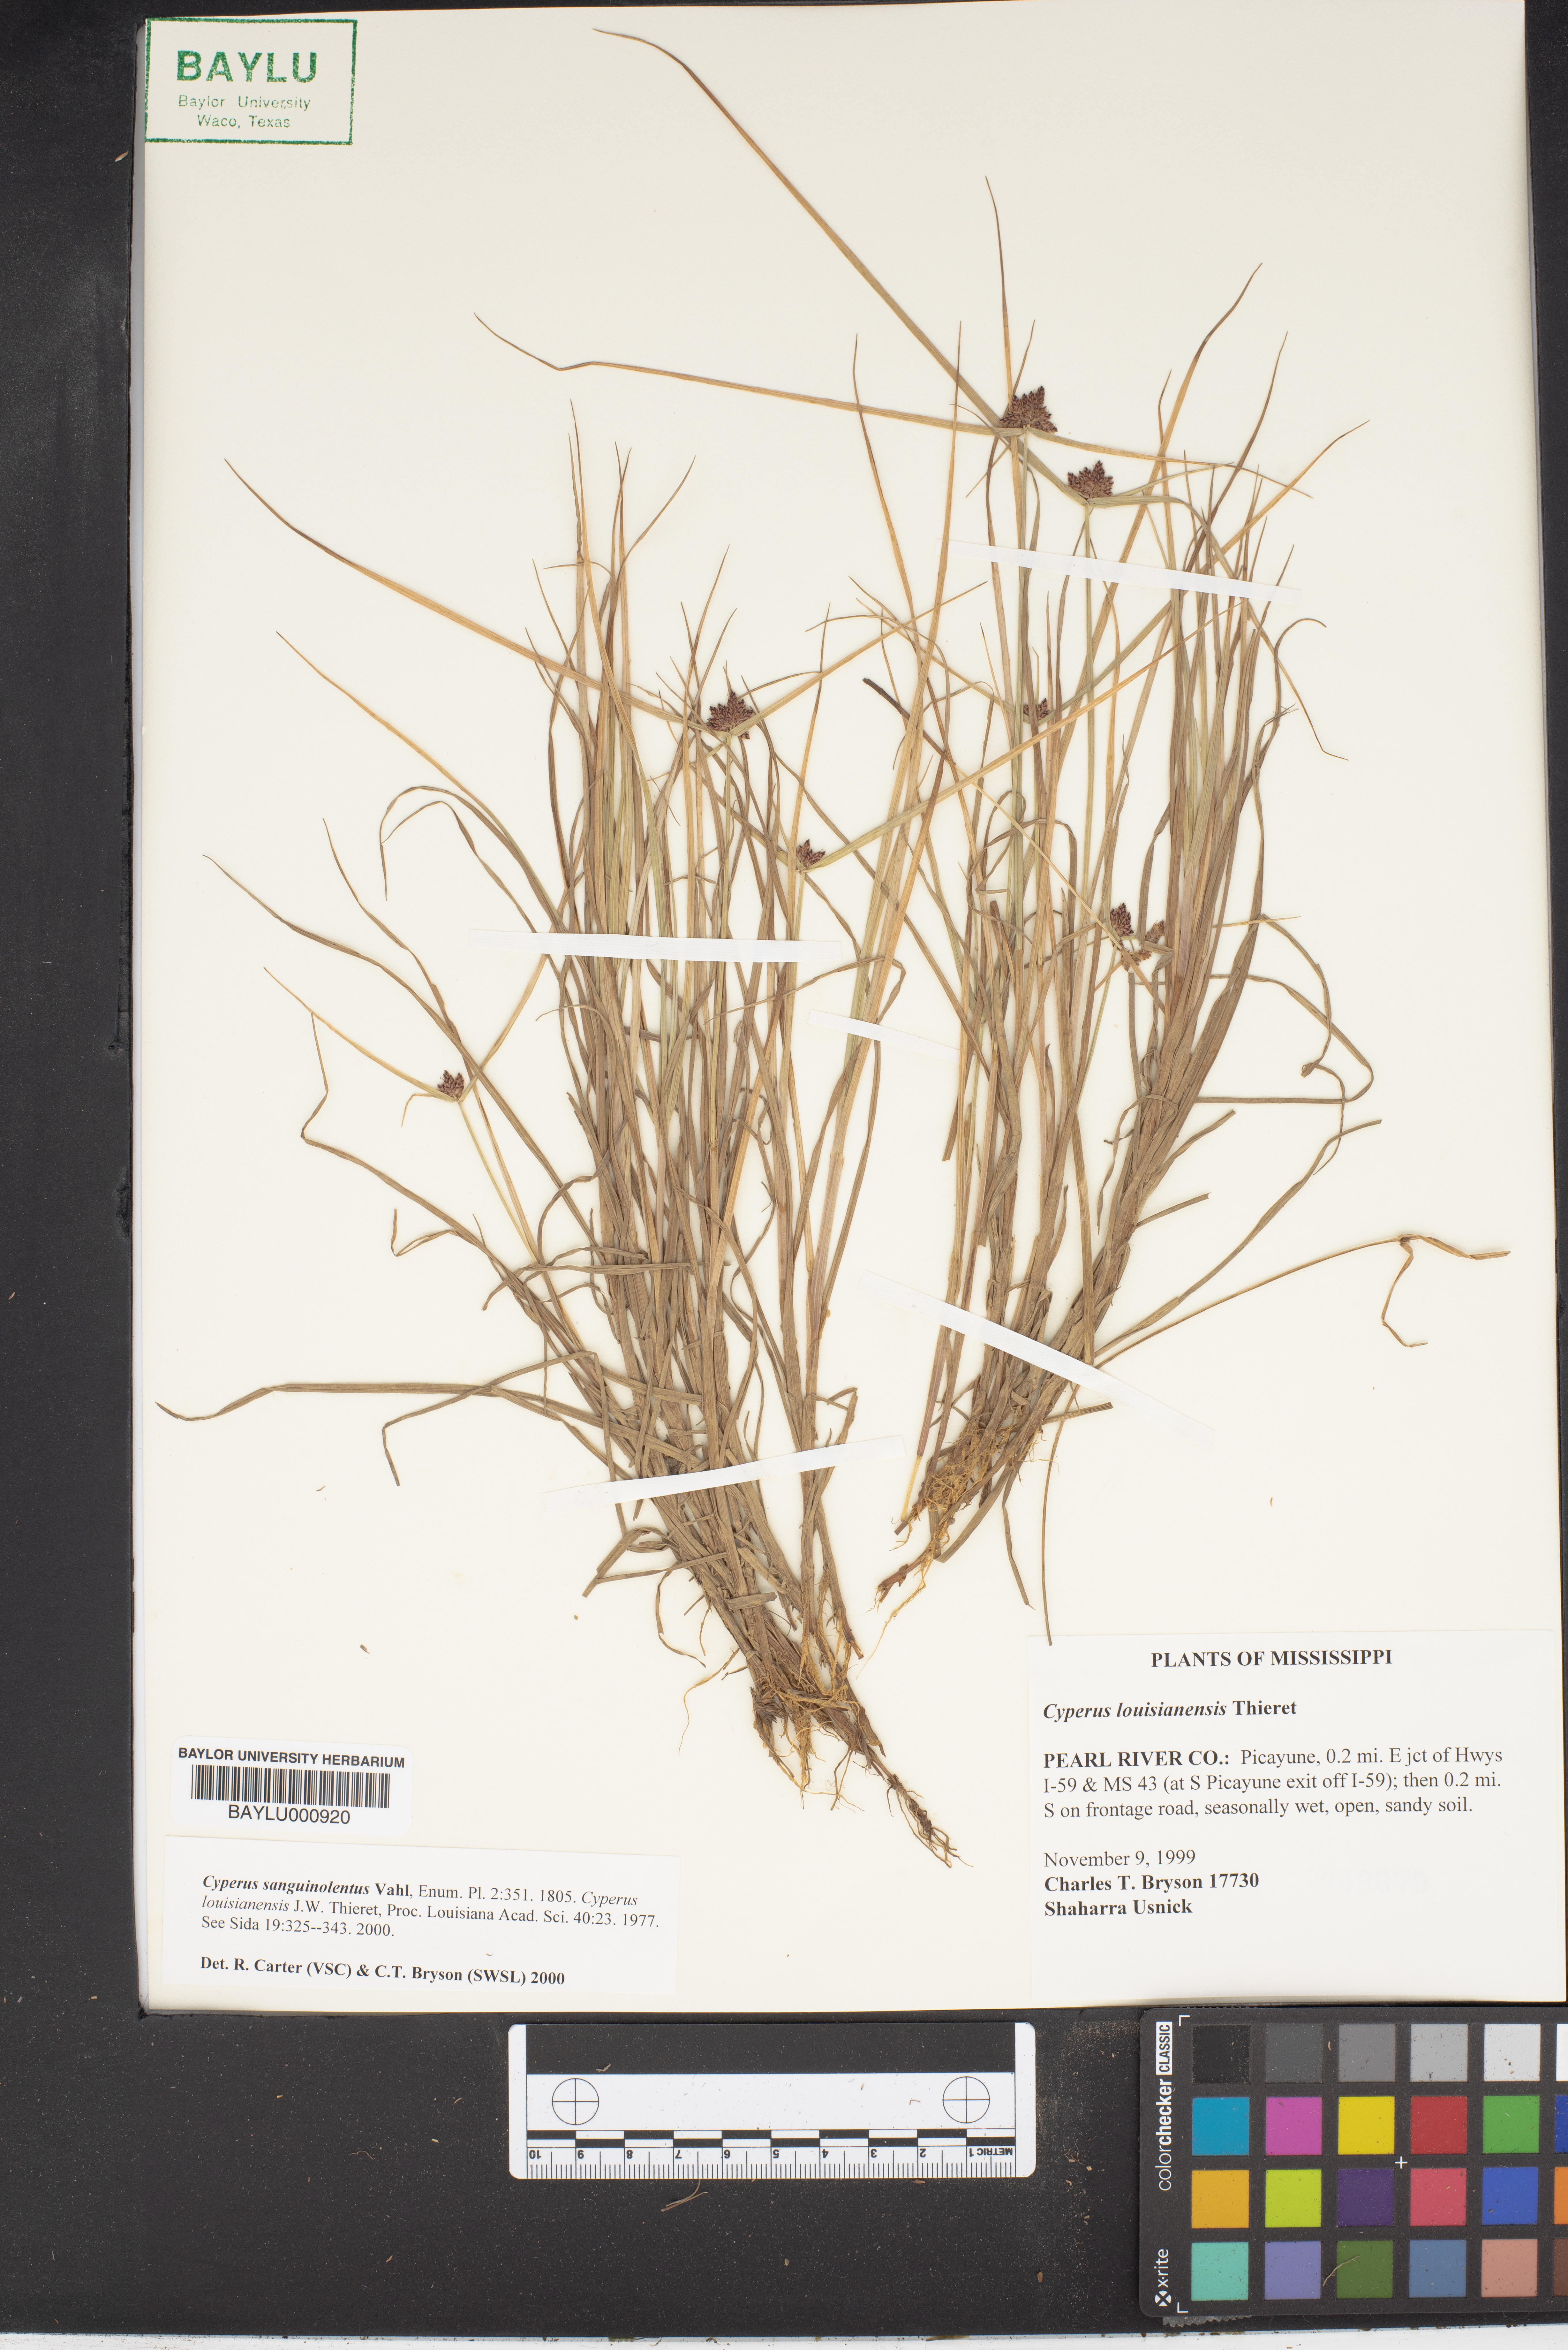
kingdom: Plantae
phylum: Tracheophyta
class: Liliopsida
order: Poales
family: Cyperaceae
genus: Cyperus
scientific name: Cyperus sanguinolentus
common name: Purpleglume flatsedge
